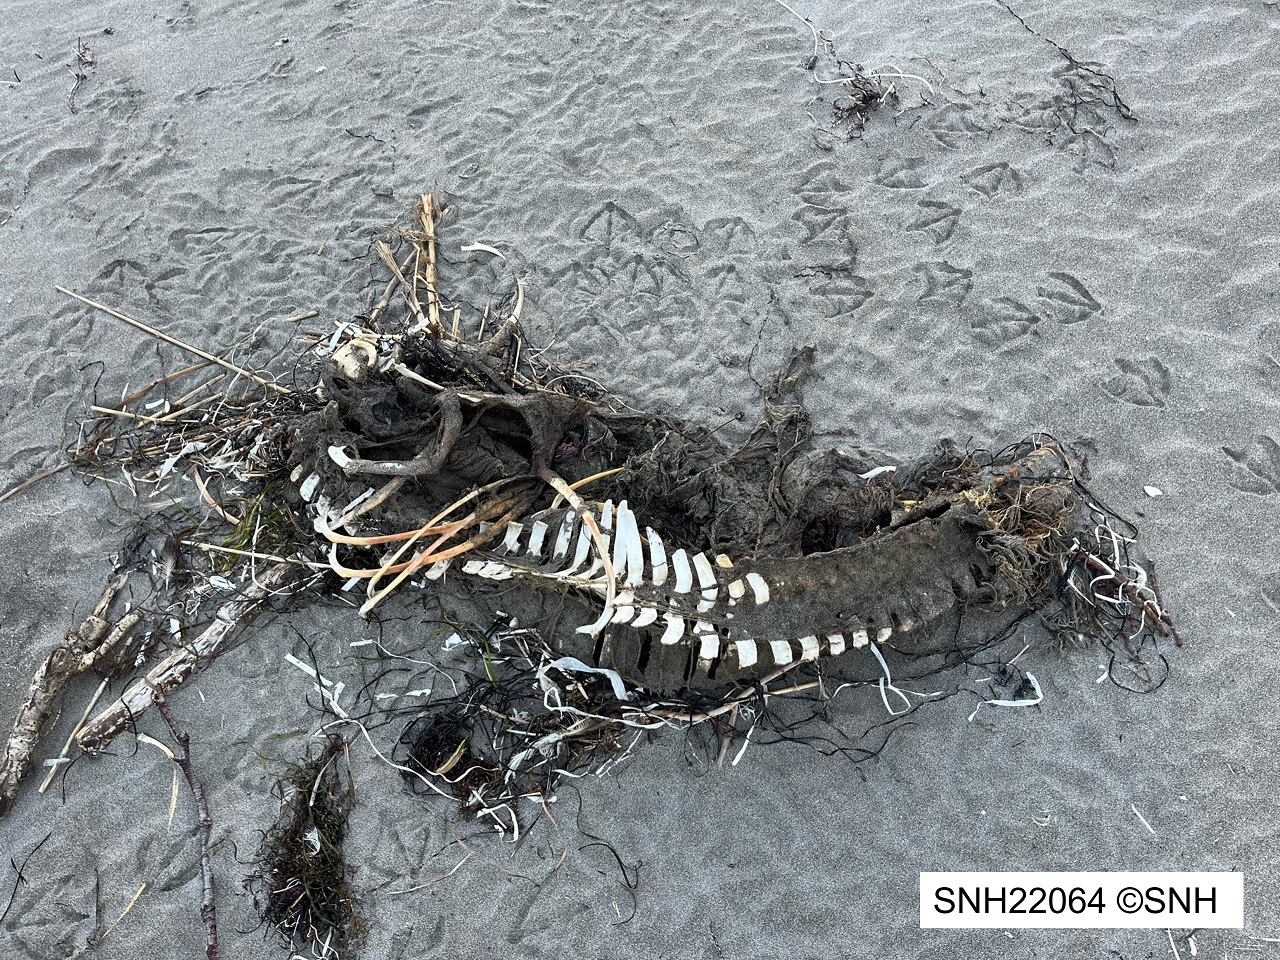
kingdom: Animalia
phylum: Chordata
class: Mammalia
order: Cetacea
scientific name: Cetacea
